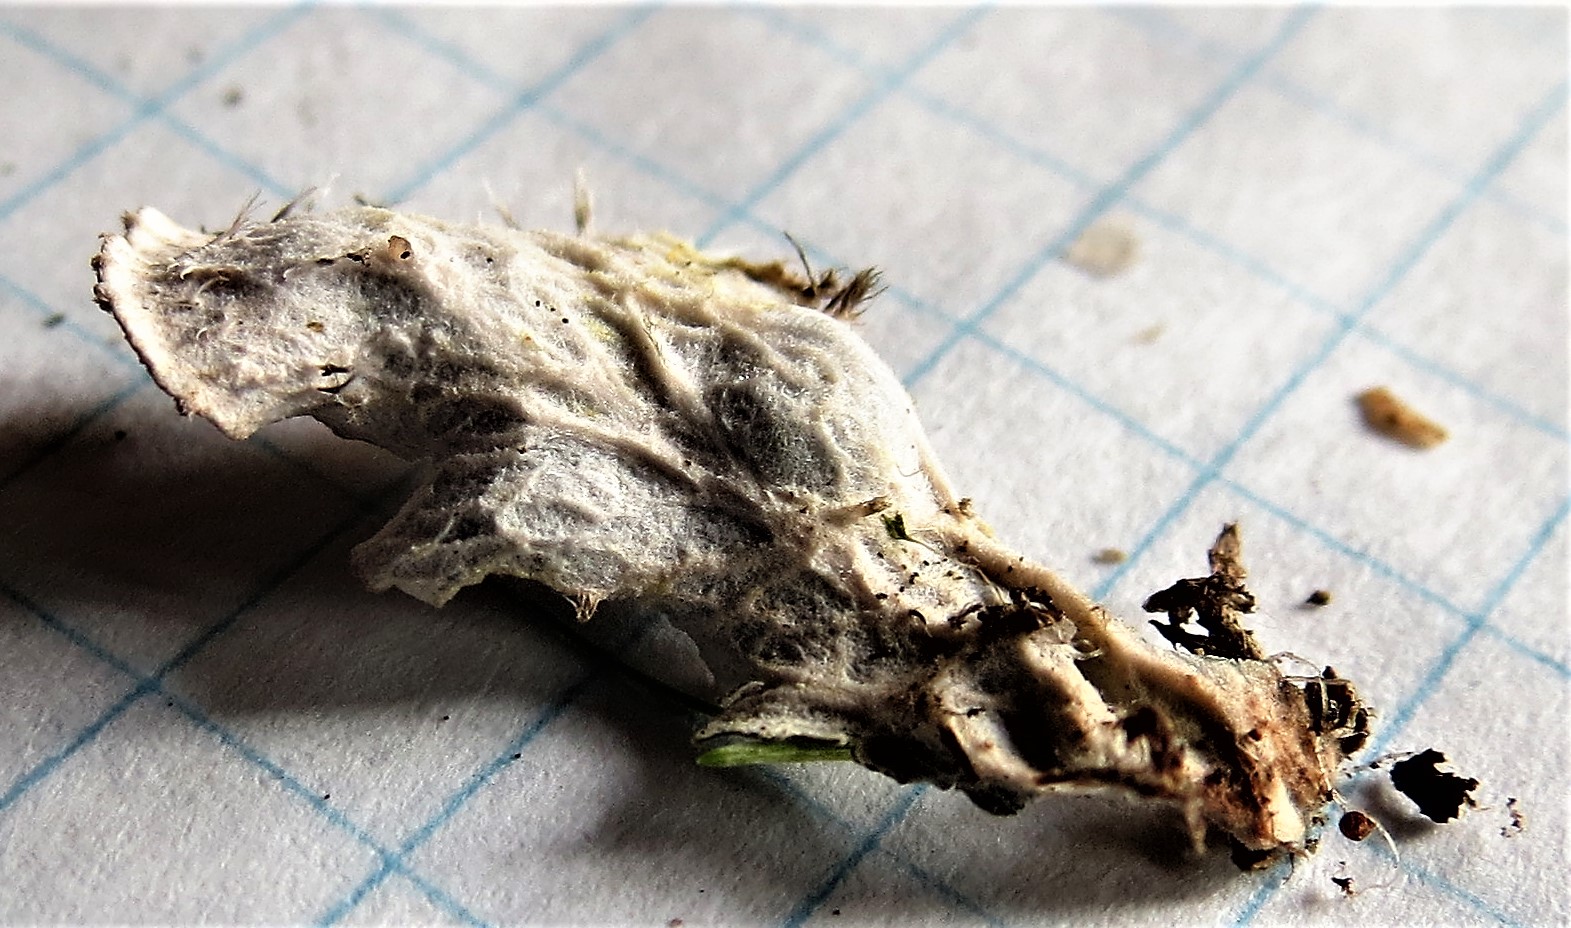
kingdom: Fungi
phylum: Ascomycota
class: Lecanoromycetes
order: Peltigerales
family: Peltigeraceae
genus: Peltigera
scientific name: Peltigera
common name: skjoldlav
